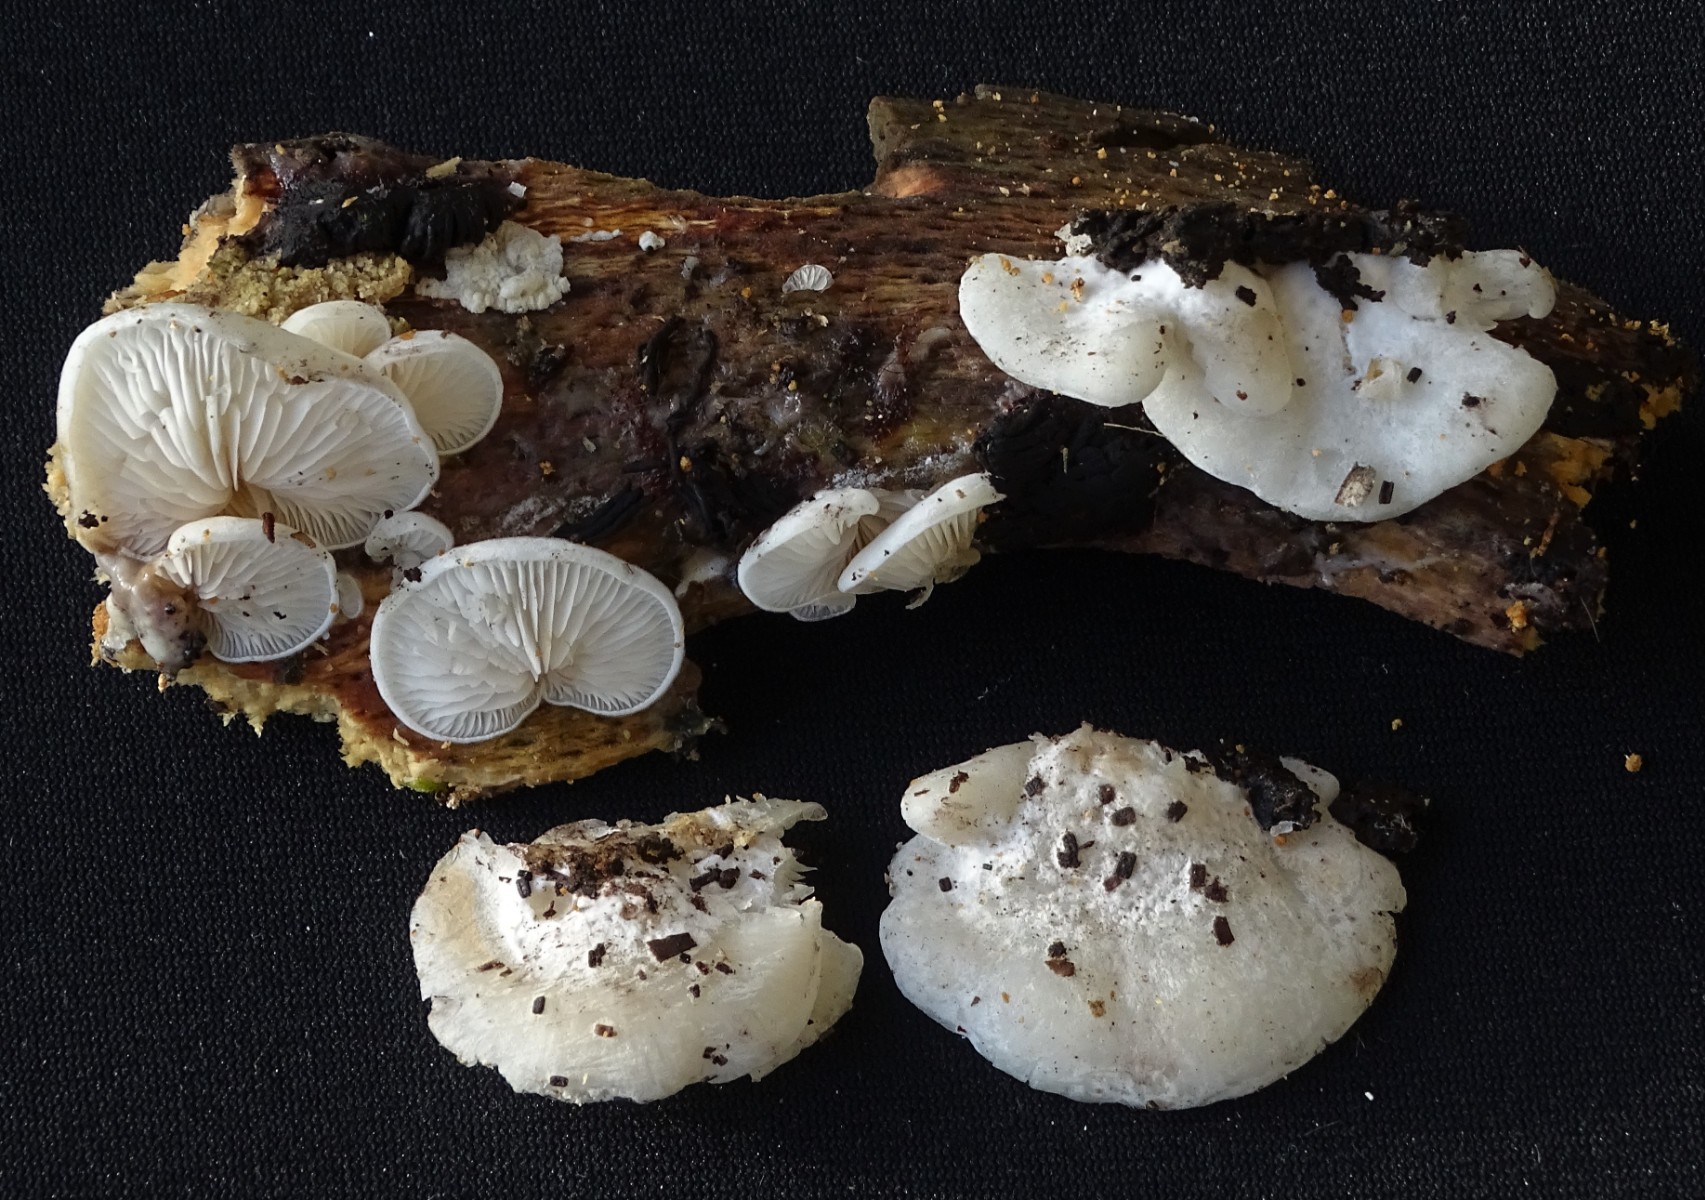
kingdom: Fungi
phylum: Basidiomycota
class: Agaricomycetes
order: Agaricales
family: Entolomataceae
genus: Clitopilus
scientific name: Clitopilus hobsonii
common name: Miller's oysterling
